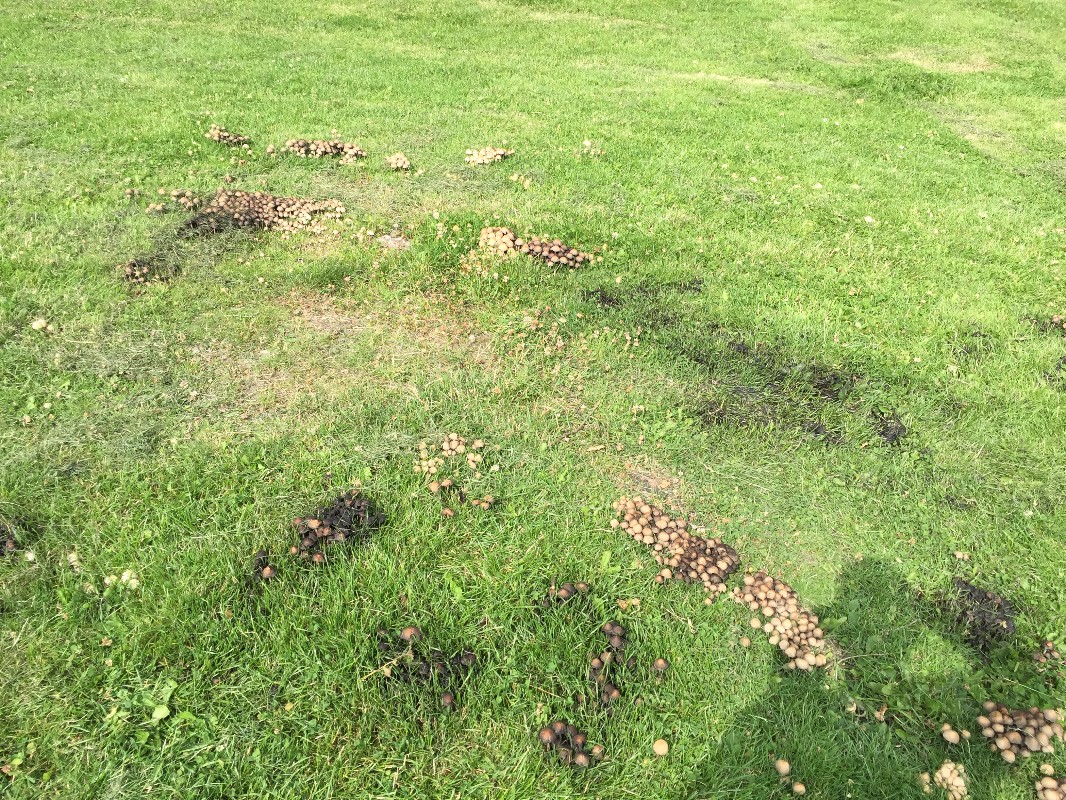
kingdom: Fungi
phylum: Basidiomycota
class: Agaricomycetes
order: Agaricales
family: Psathyrellaceae
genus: Coprinellus
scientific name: Coprinellus micaceus
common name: glimmer-blækhat
